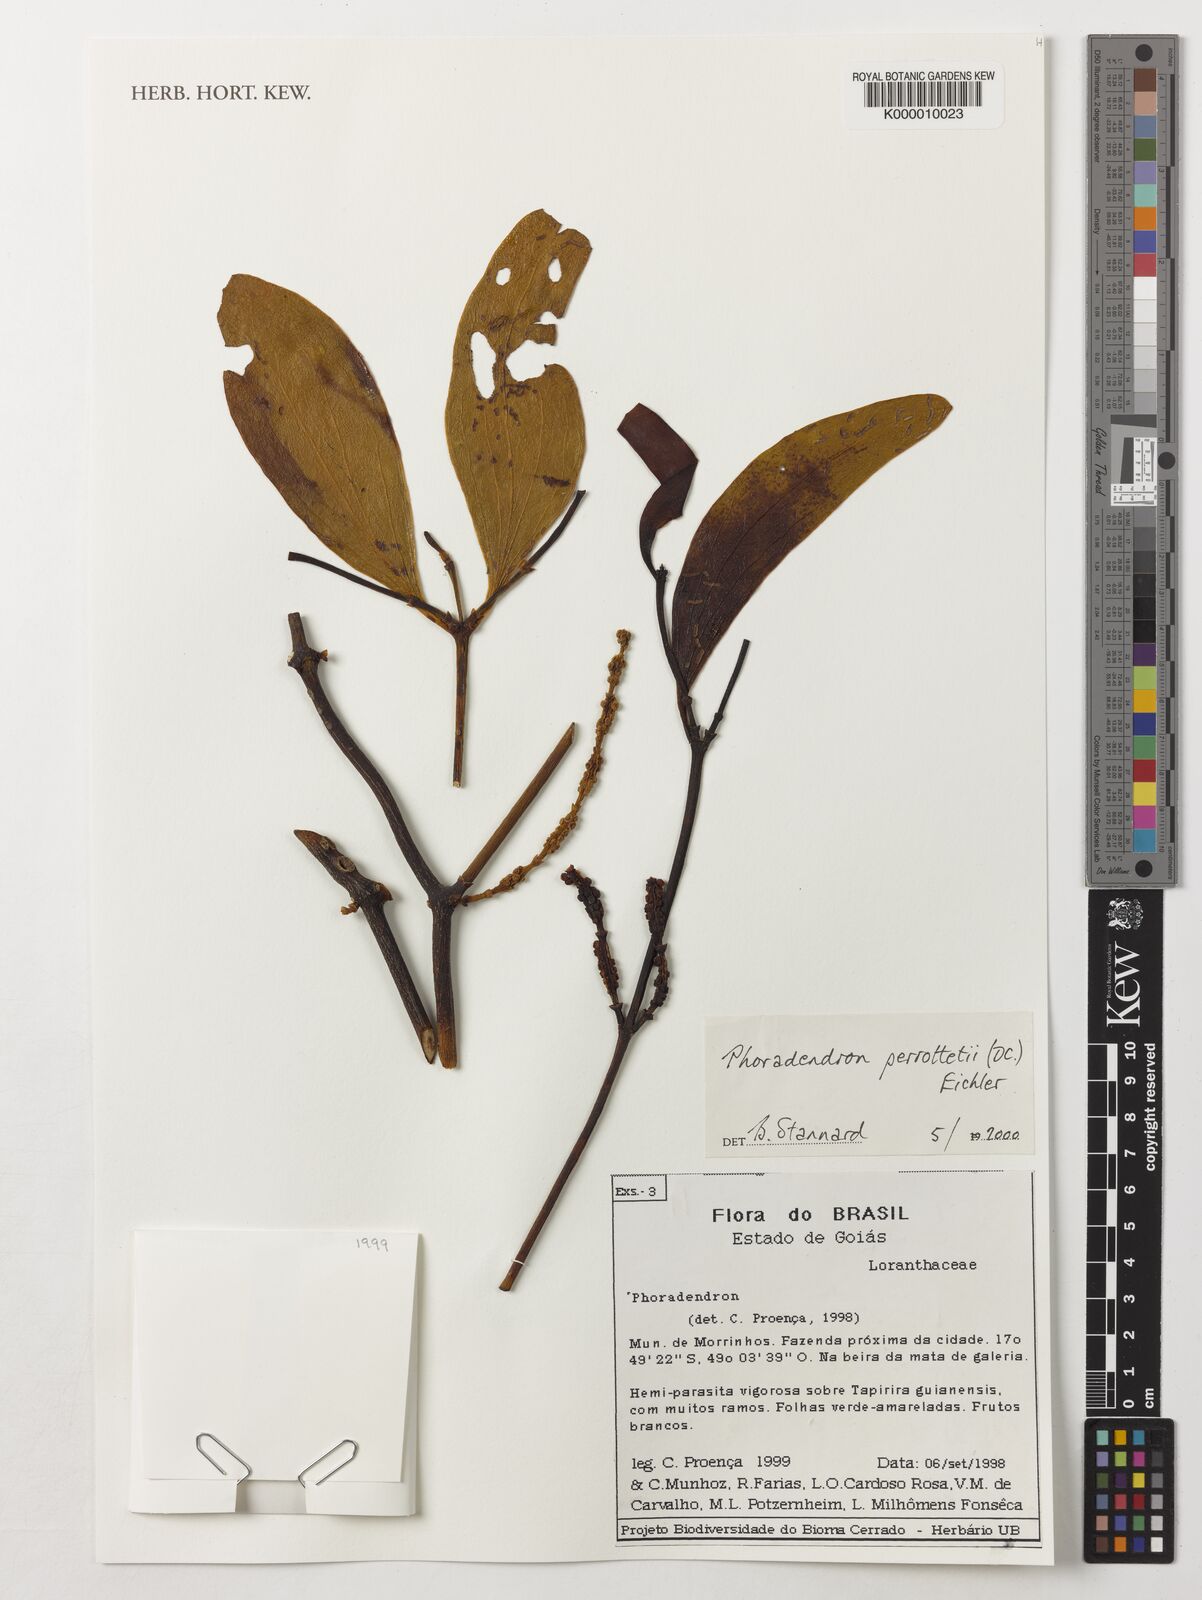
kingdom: Plantae
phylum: Tracheophyta
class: Magnoliopsida
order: Santalales
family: Viscaceae
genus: Phoradendron
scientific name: Phoradendron perrottetii
